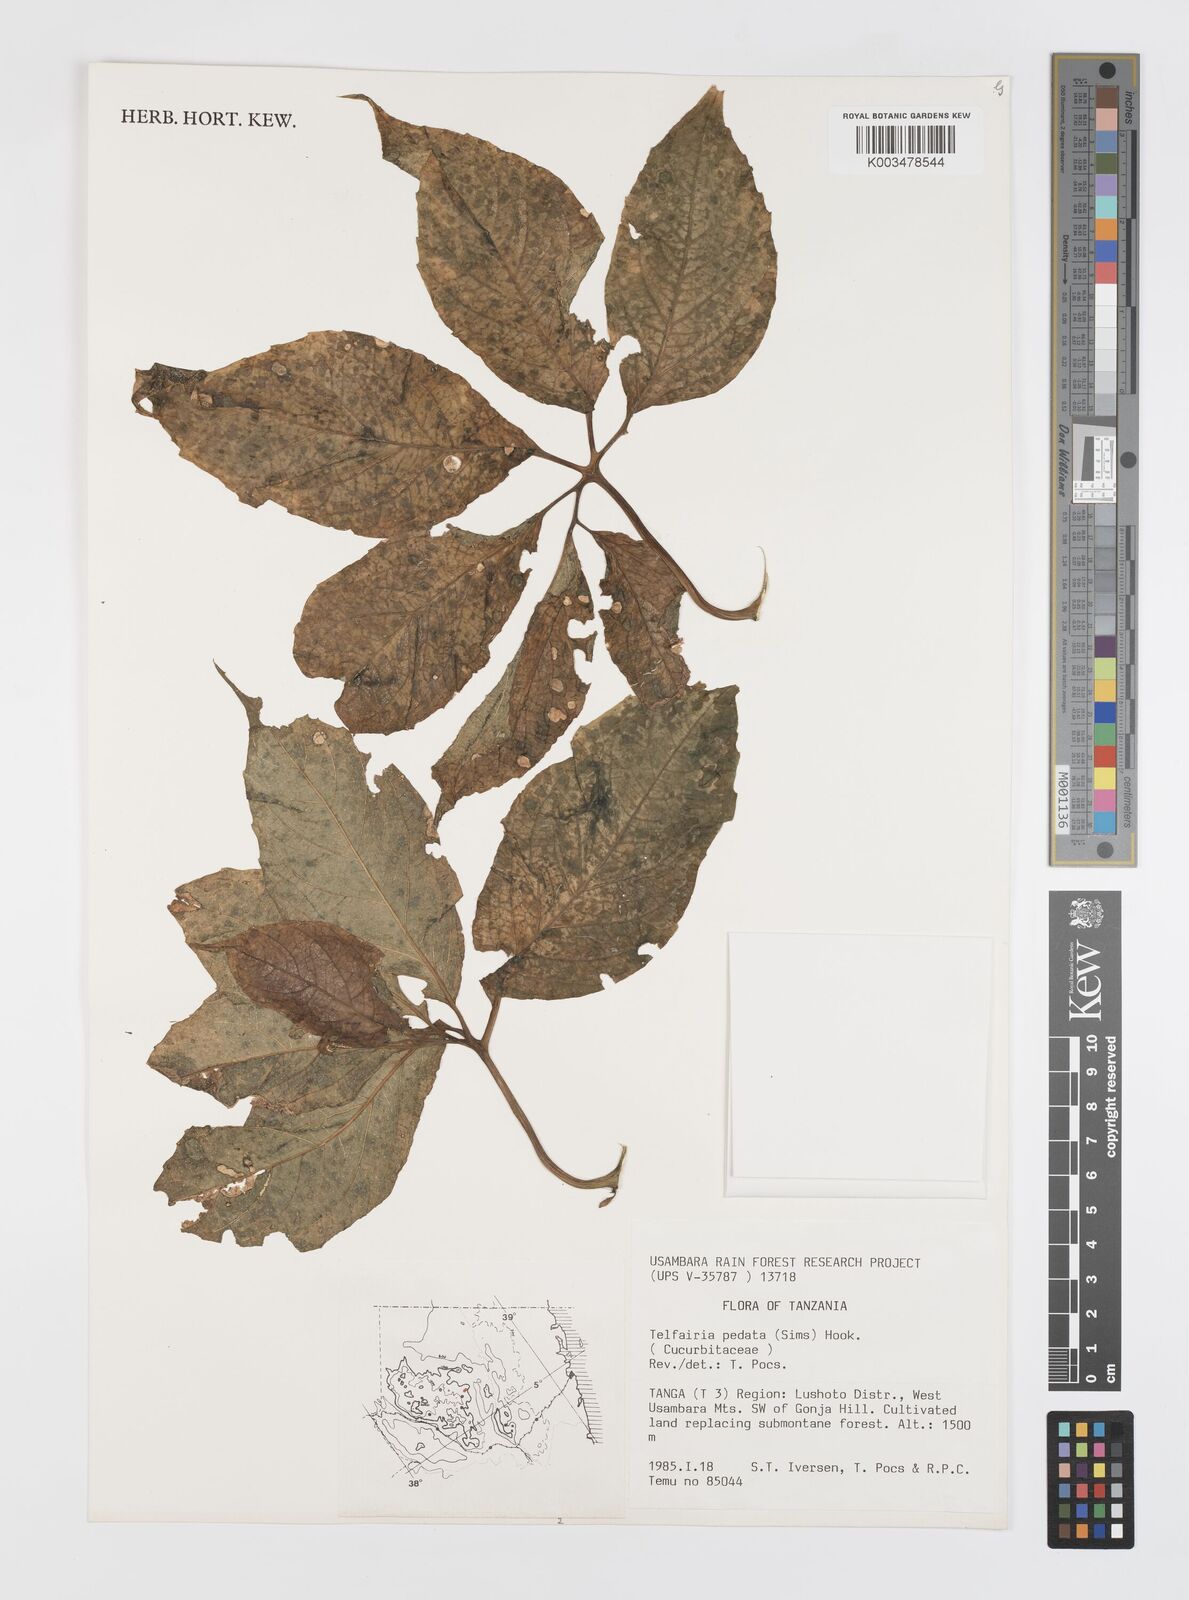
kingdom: Plantae
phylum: Tracheophyta
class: Magnoliopsida
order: Cucurbitales
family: Cucurbitaceae
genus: Telfairia
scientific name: Telfairia pedata
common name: Zanzibar oilvine
